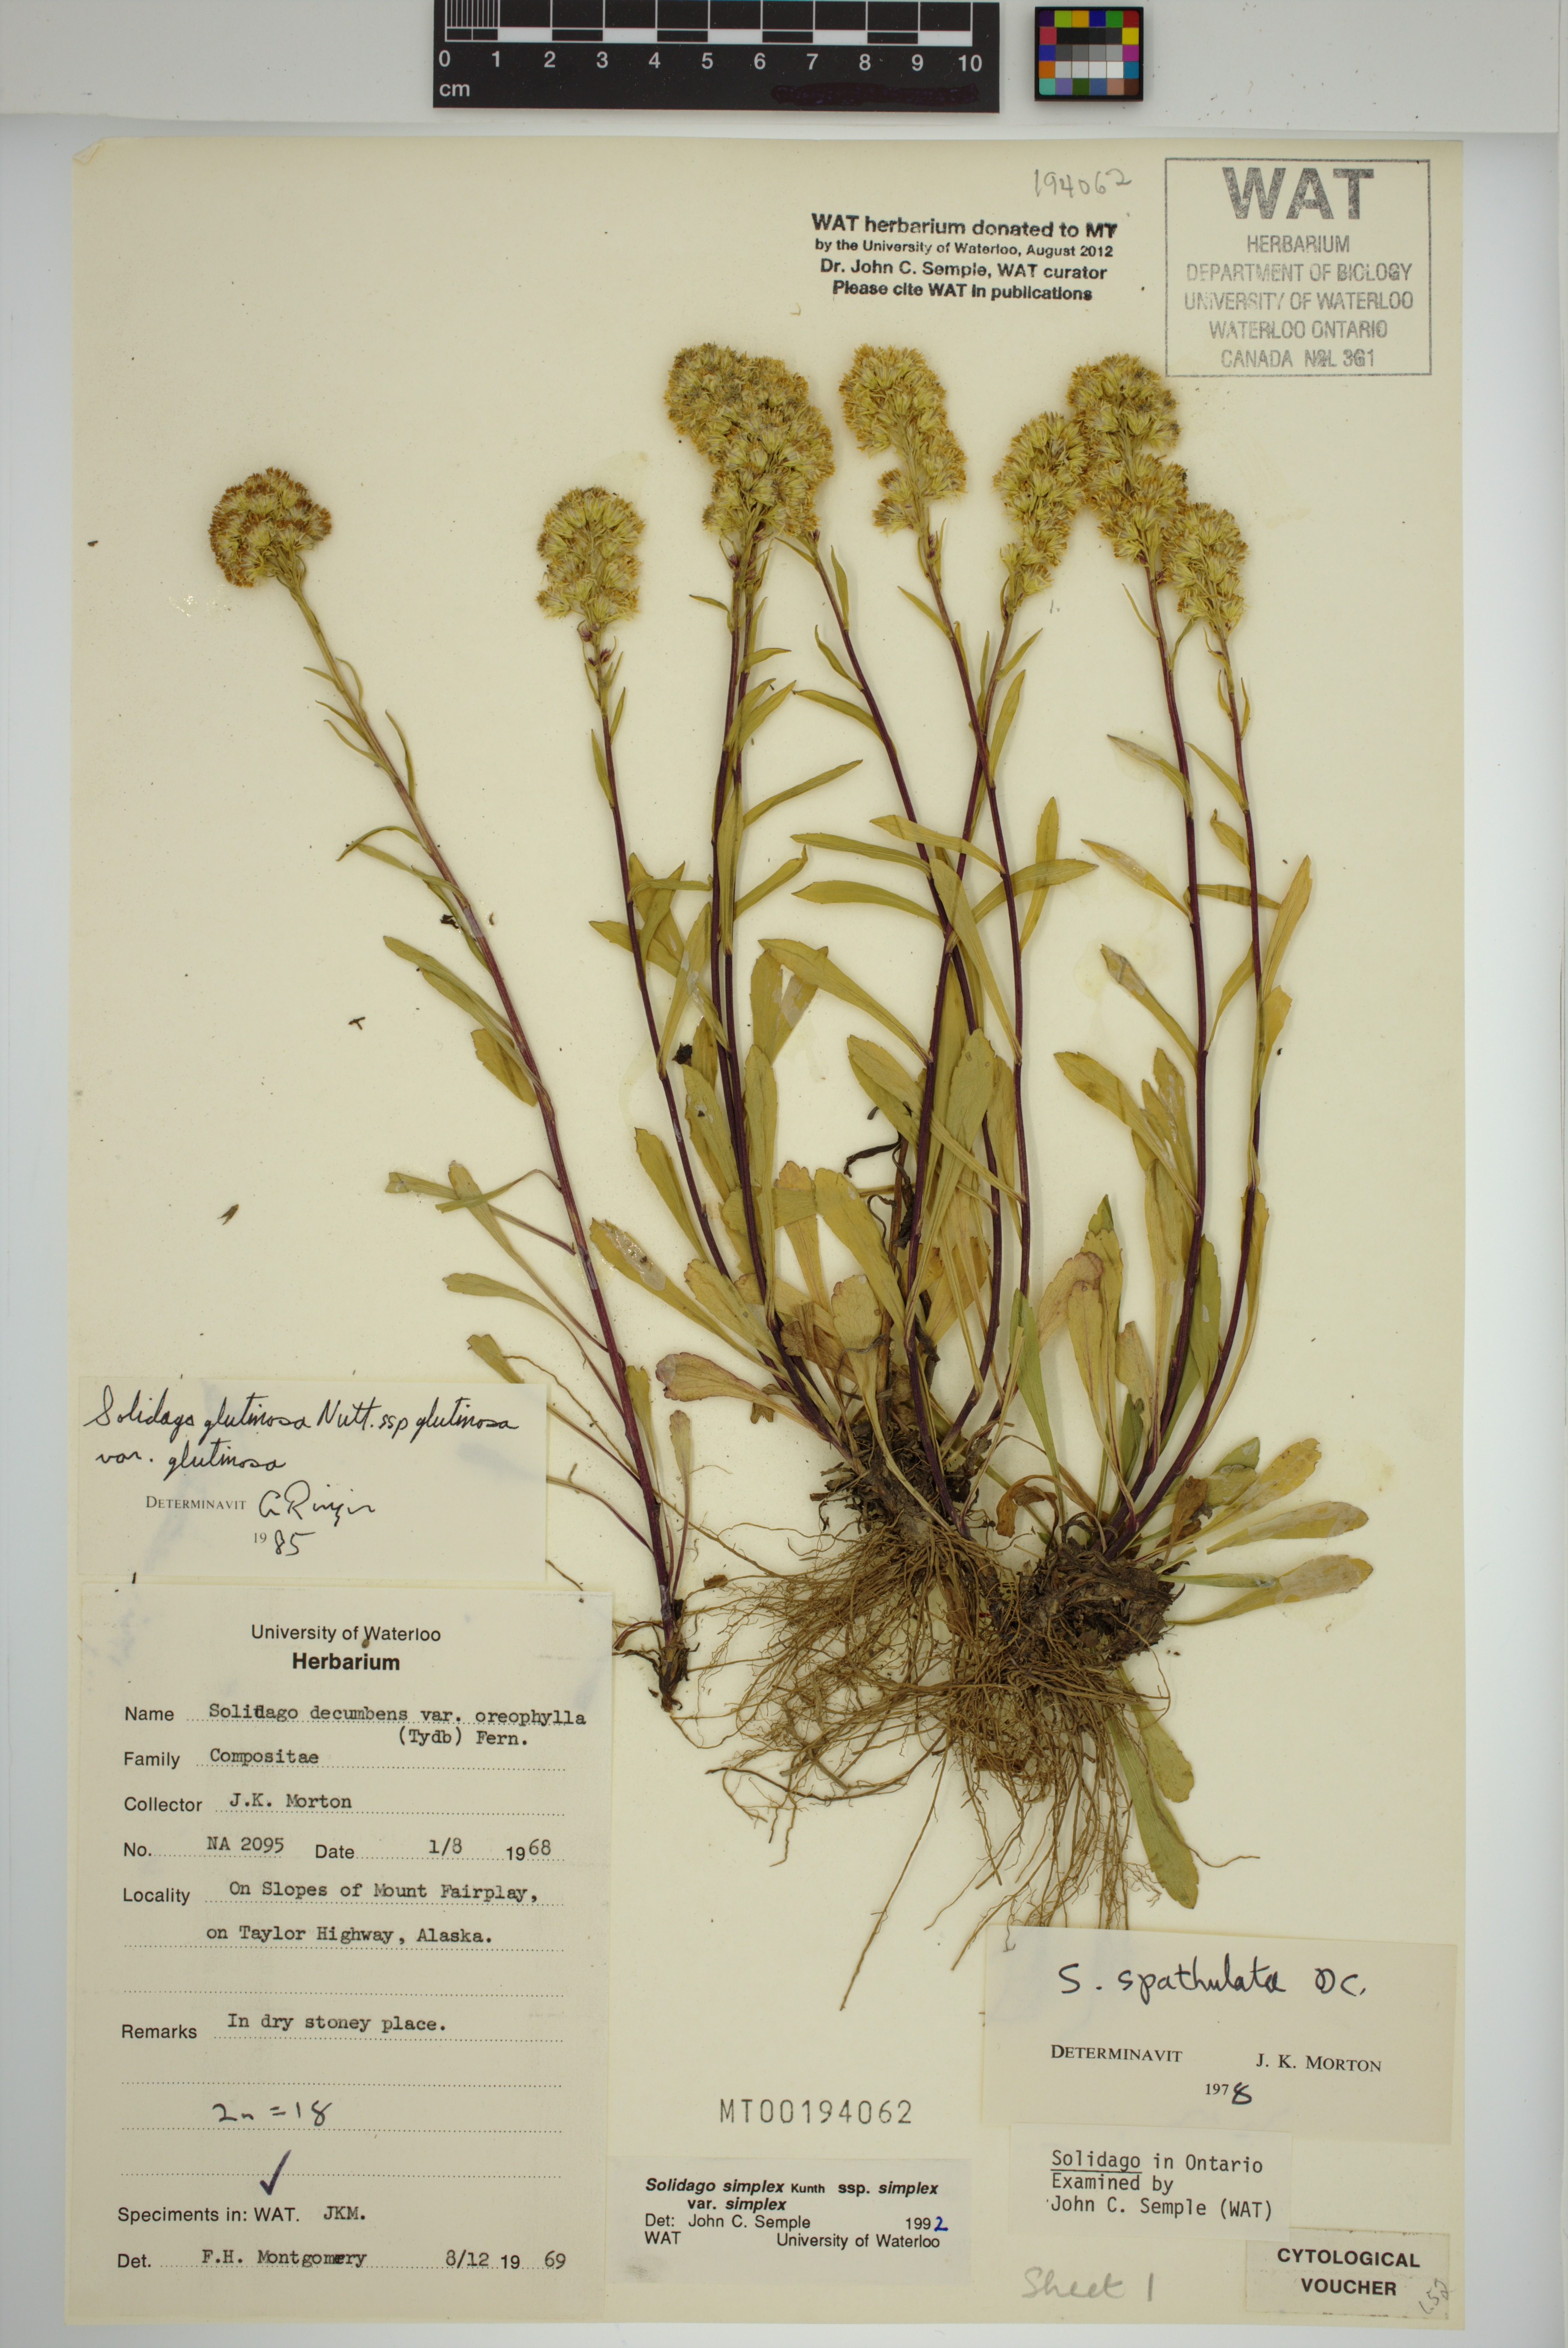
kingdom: Plantae
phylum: Tracheophyta
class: Magnoliopsida
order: Asterales
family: Asteraceae
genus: Solidago
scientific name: Solidago glutinosa
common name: Decumbent goldenrod
